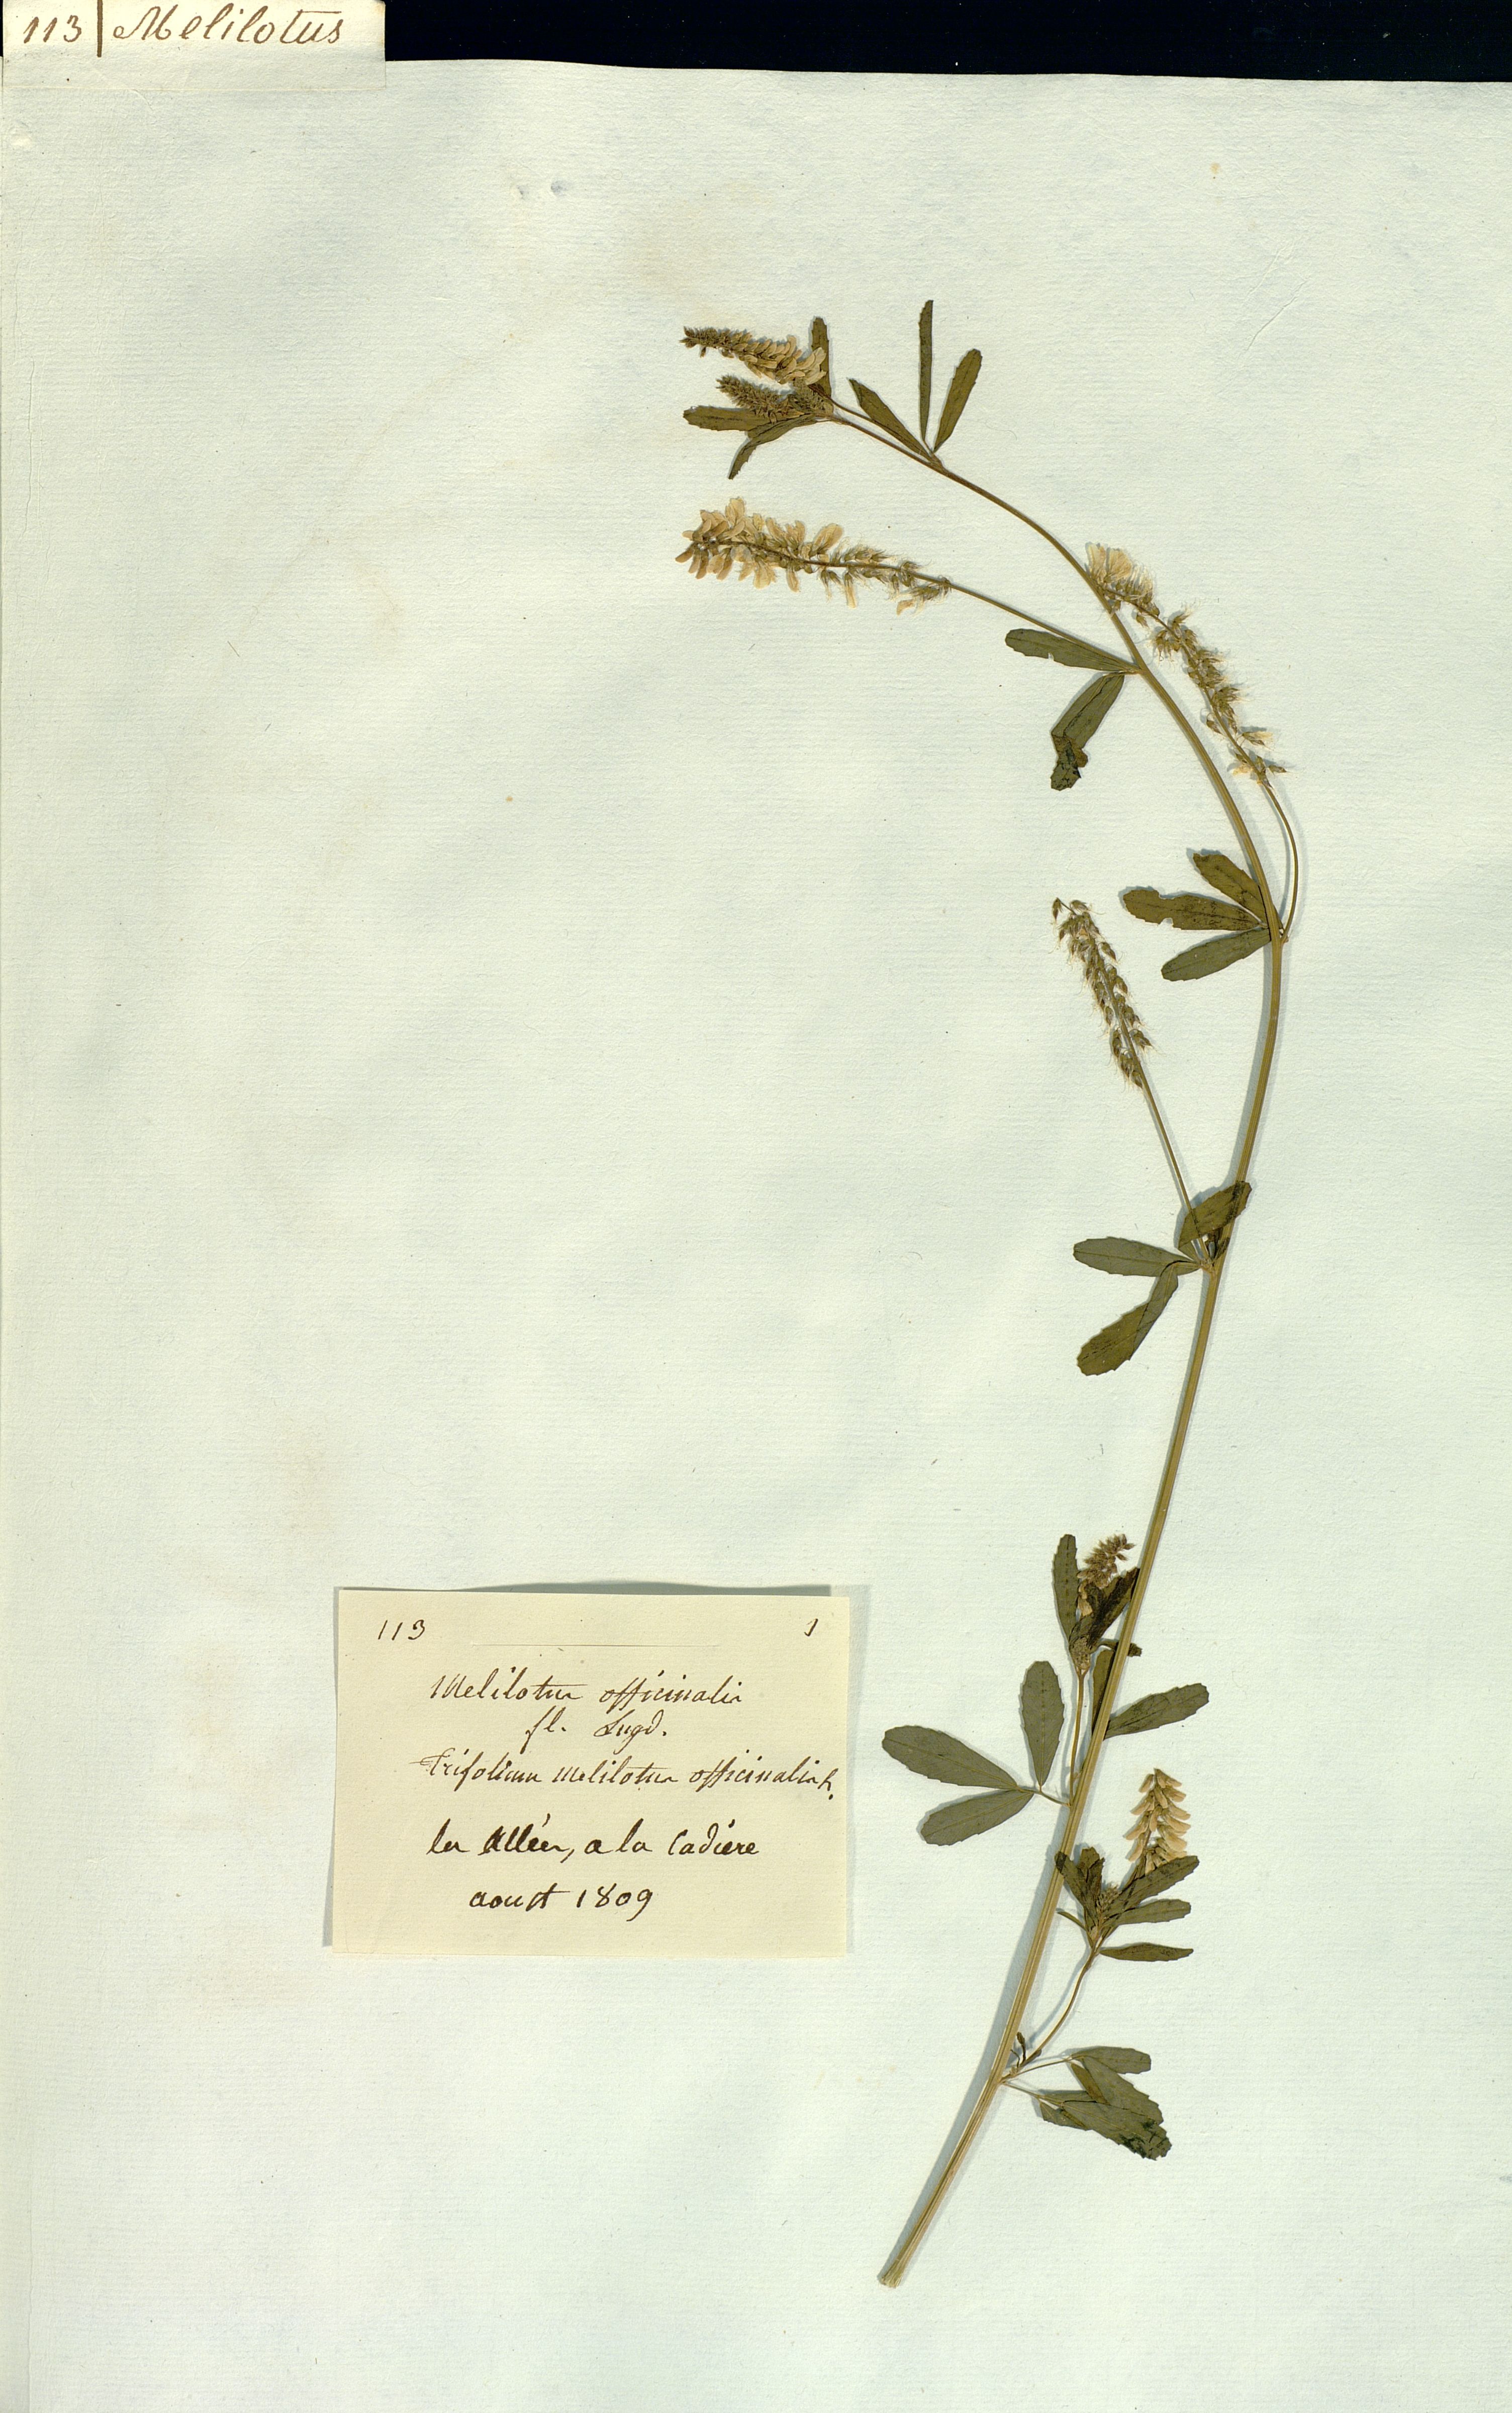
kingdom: Plantae
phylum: Tracheophyta
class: Magnoliopsida
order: Fabales
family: Fabaceae
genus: Melilotus
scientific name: Melilotus officinalis
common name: Sweetclover
